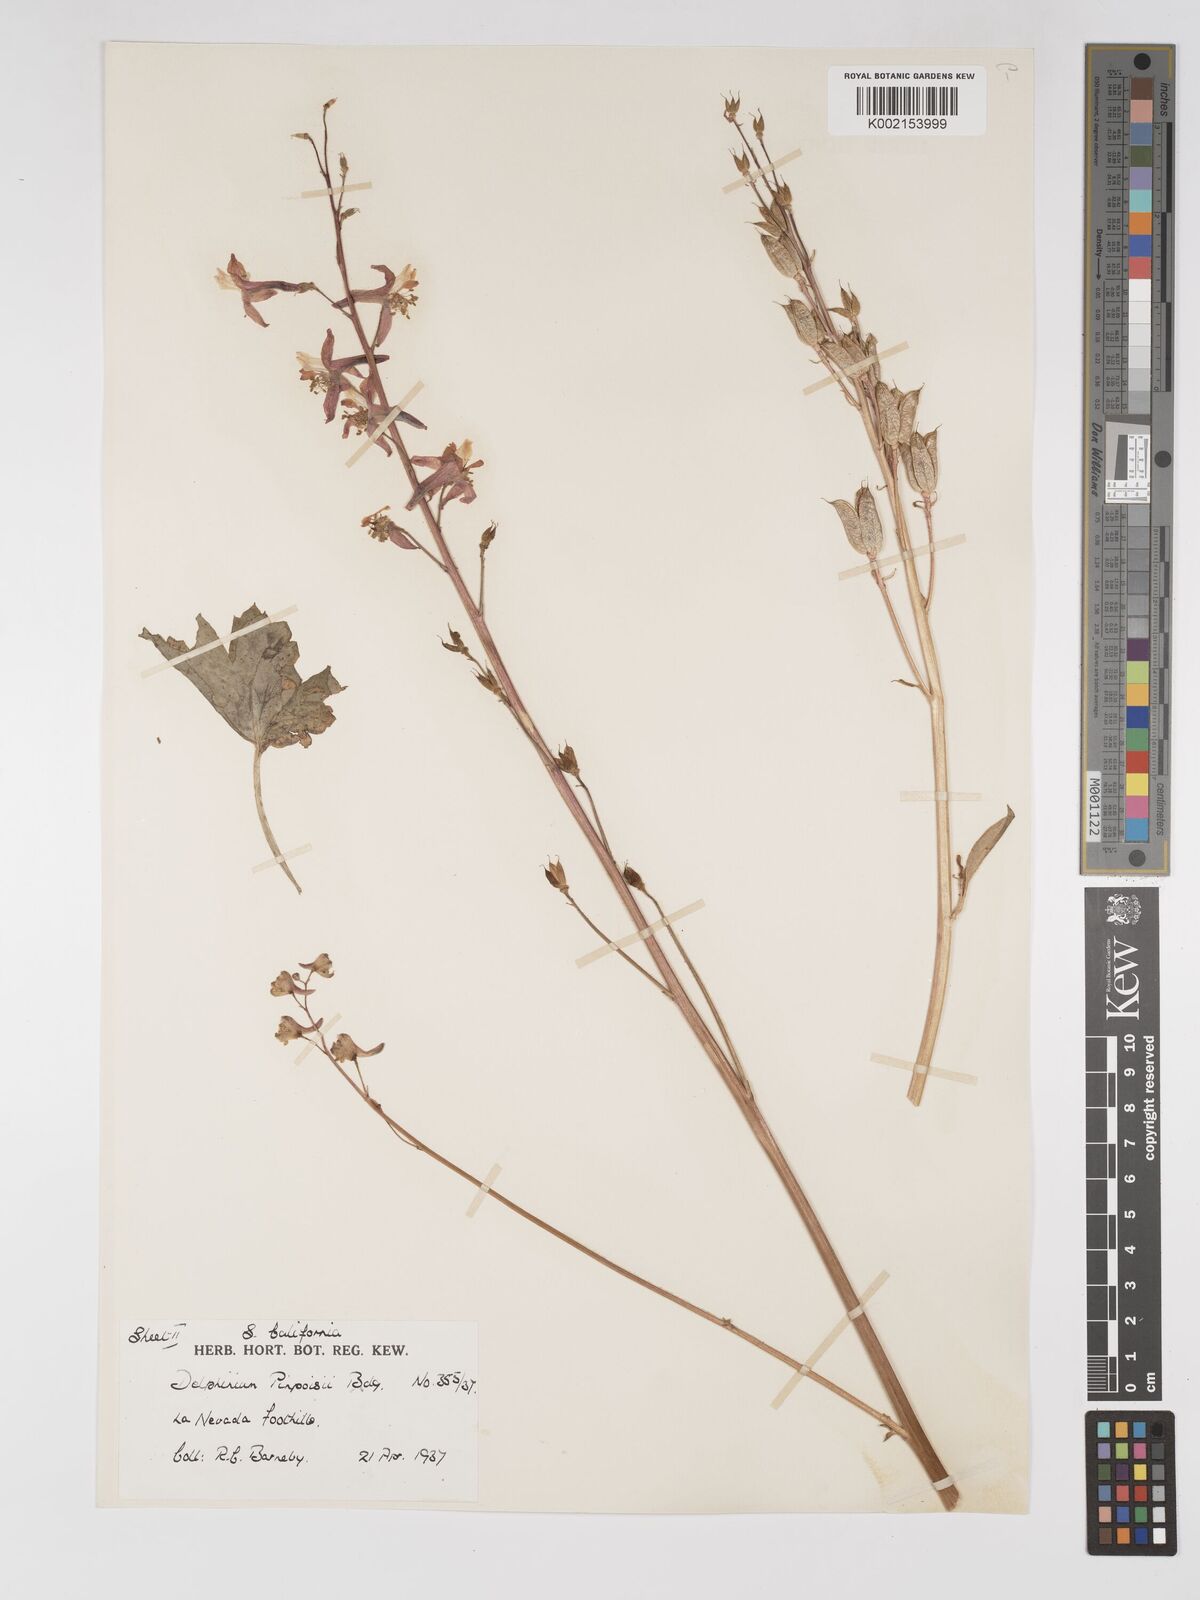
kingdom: Plantae
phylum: Tracheophyta
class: Magnoliopsida
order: Ranunculales
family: Ranunculaceae
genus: Delphinium
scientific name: Delphinium purpusii
